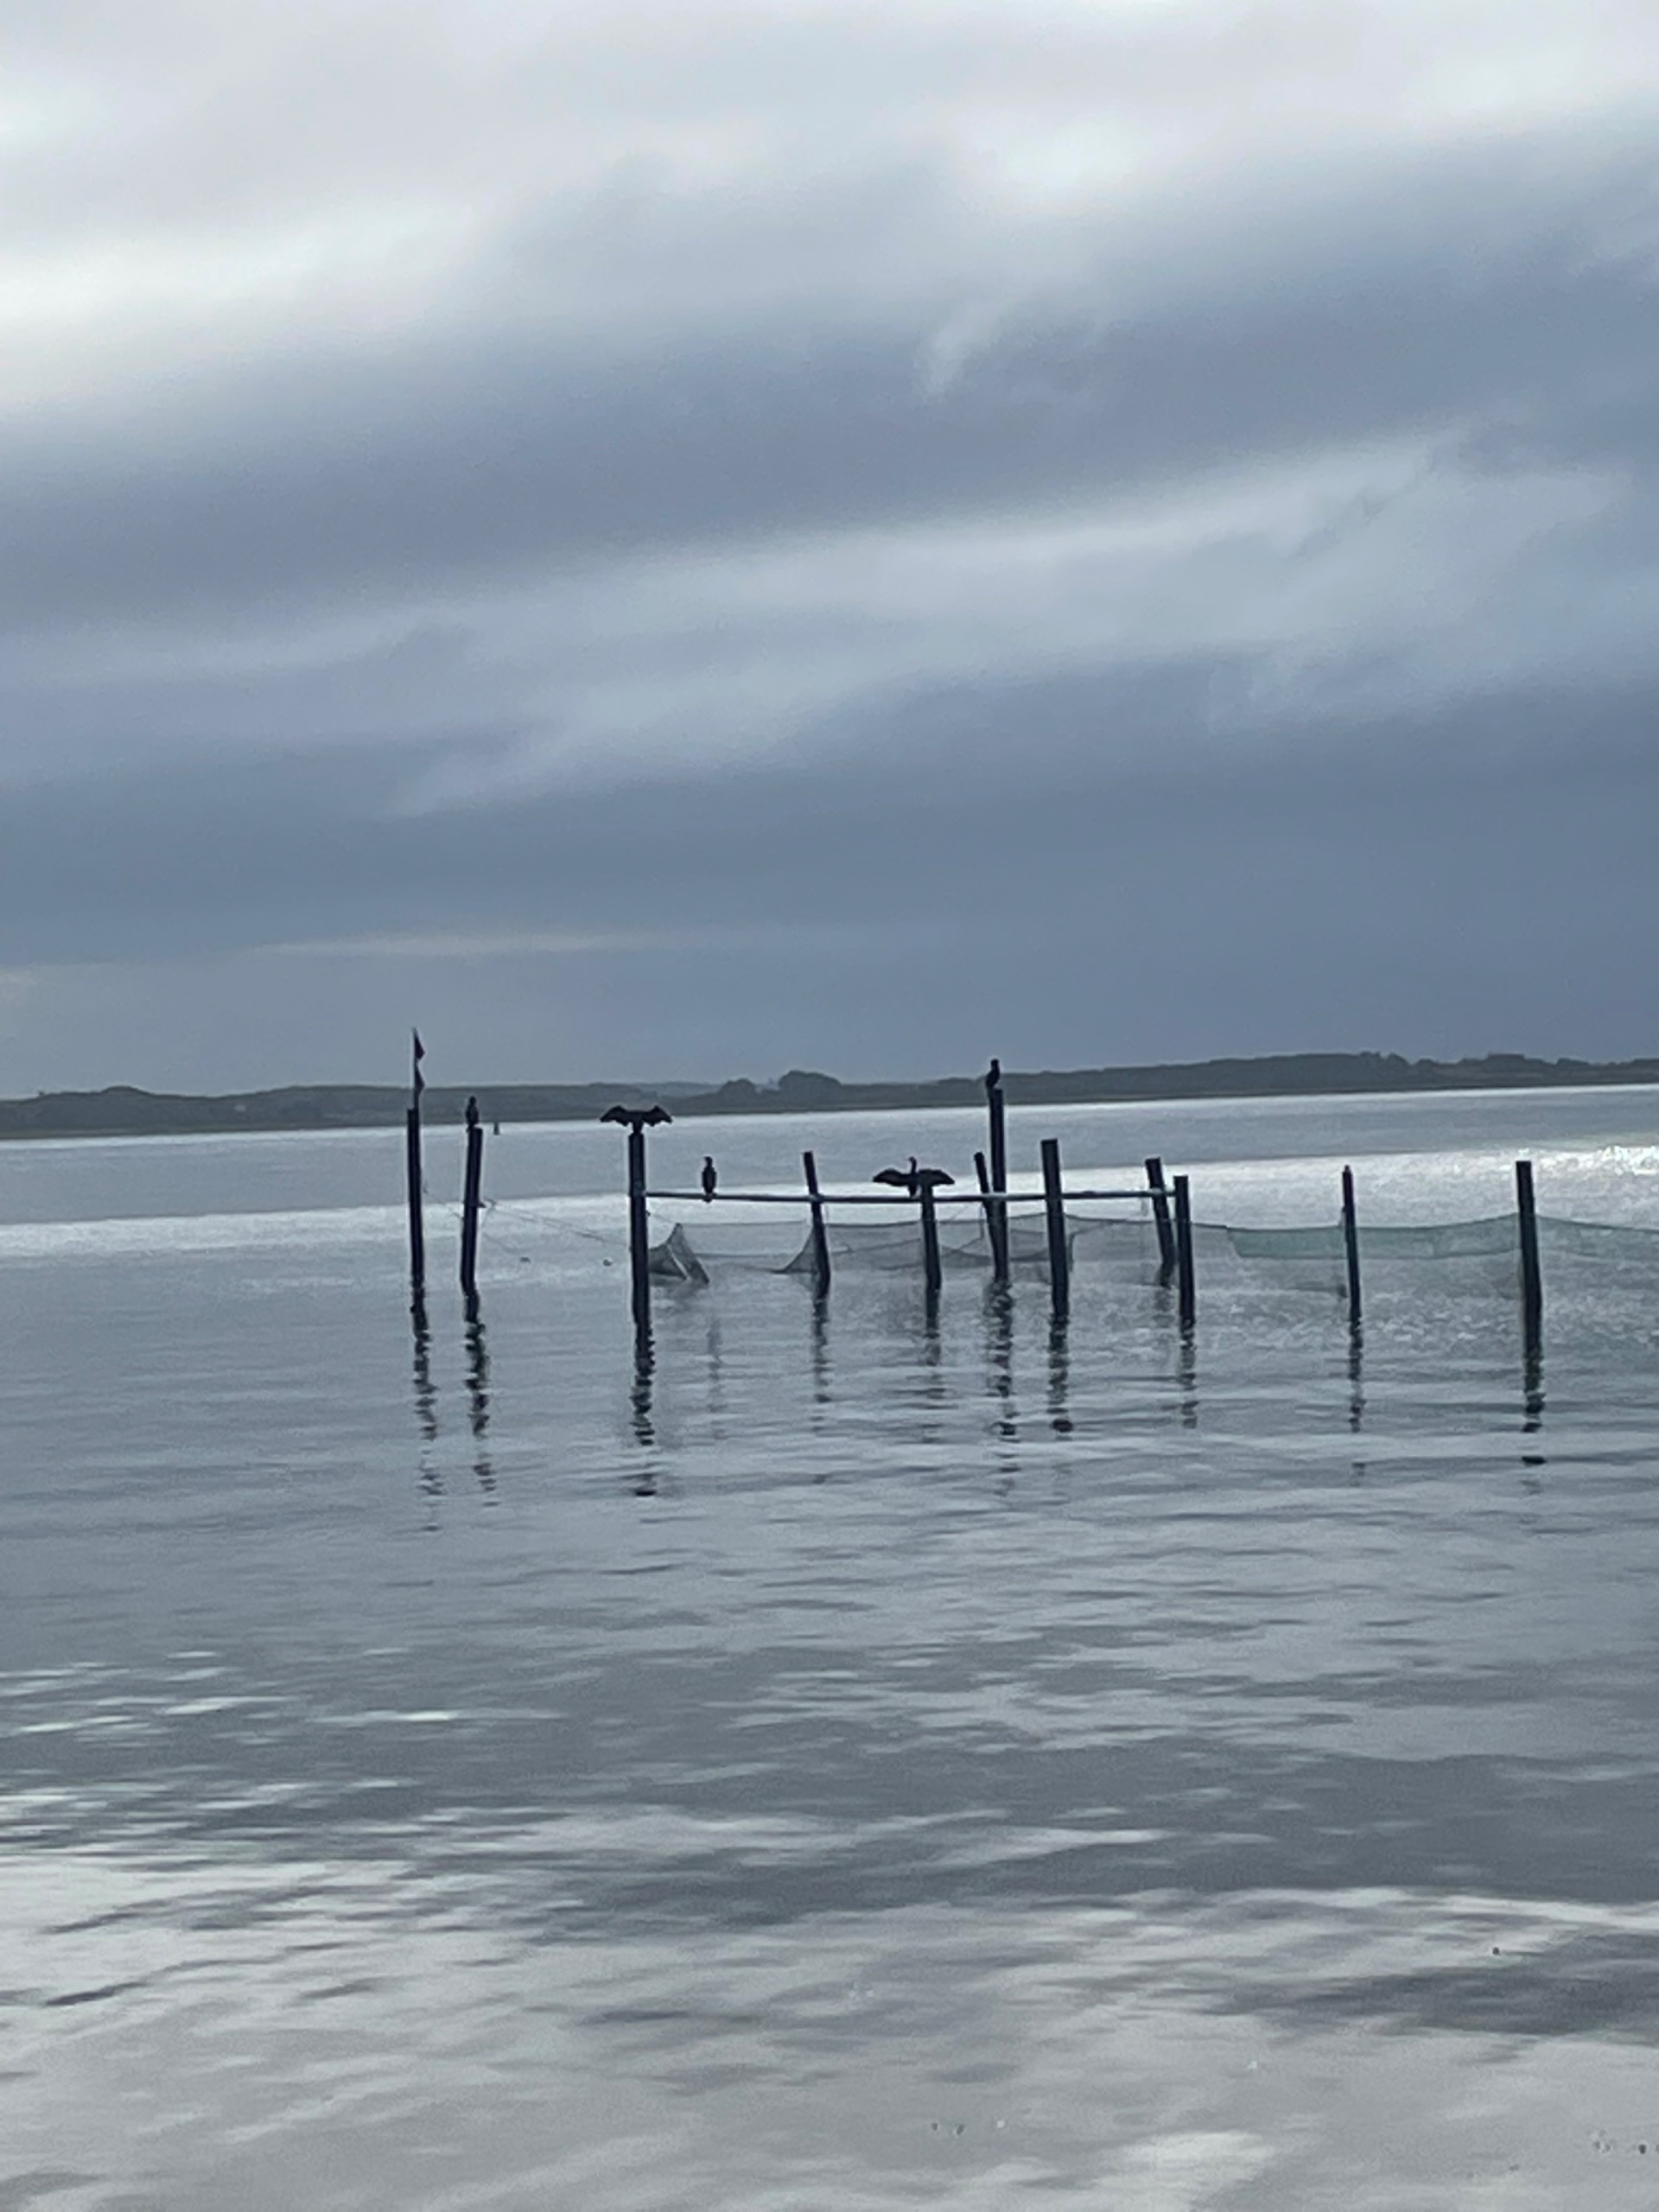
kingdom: Animalia
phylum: Chordata
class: Aves
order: Suliformes
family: Phalacrocoracidae
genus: Phalacrocorax
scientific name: Phalacrocorax carbo
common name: Skarv
